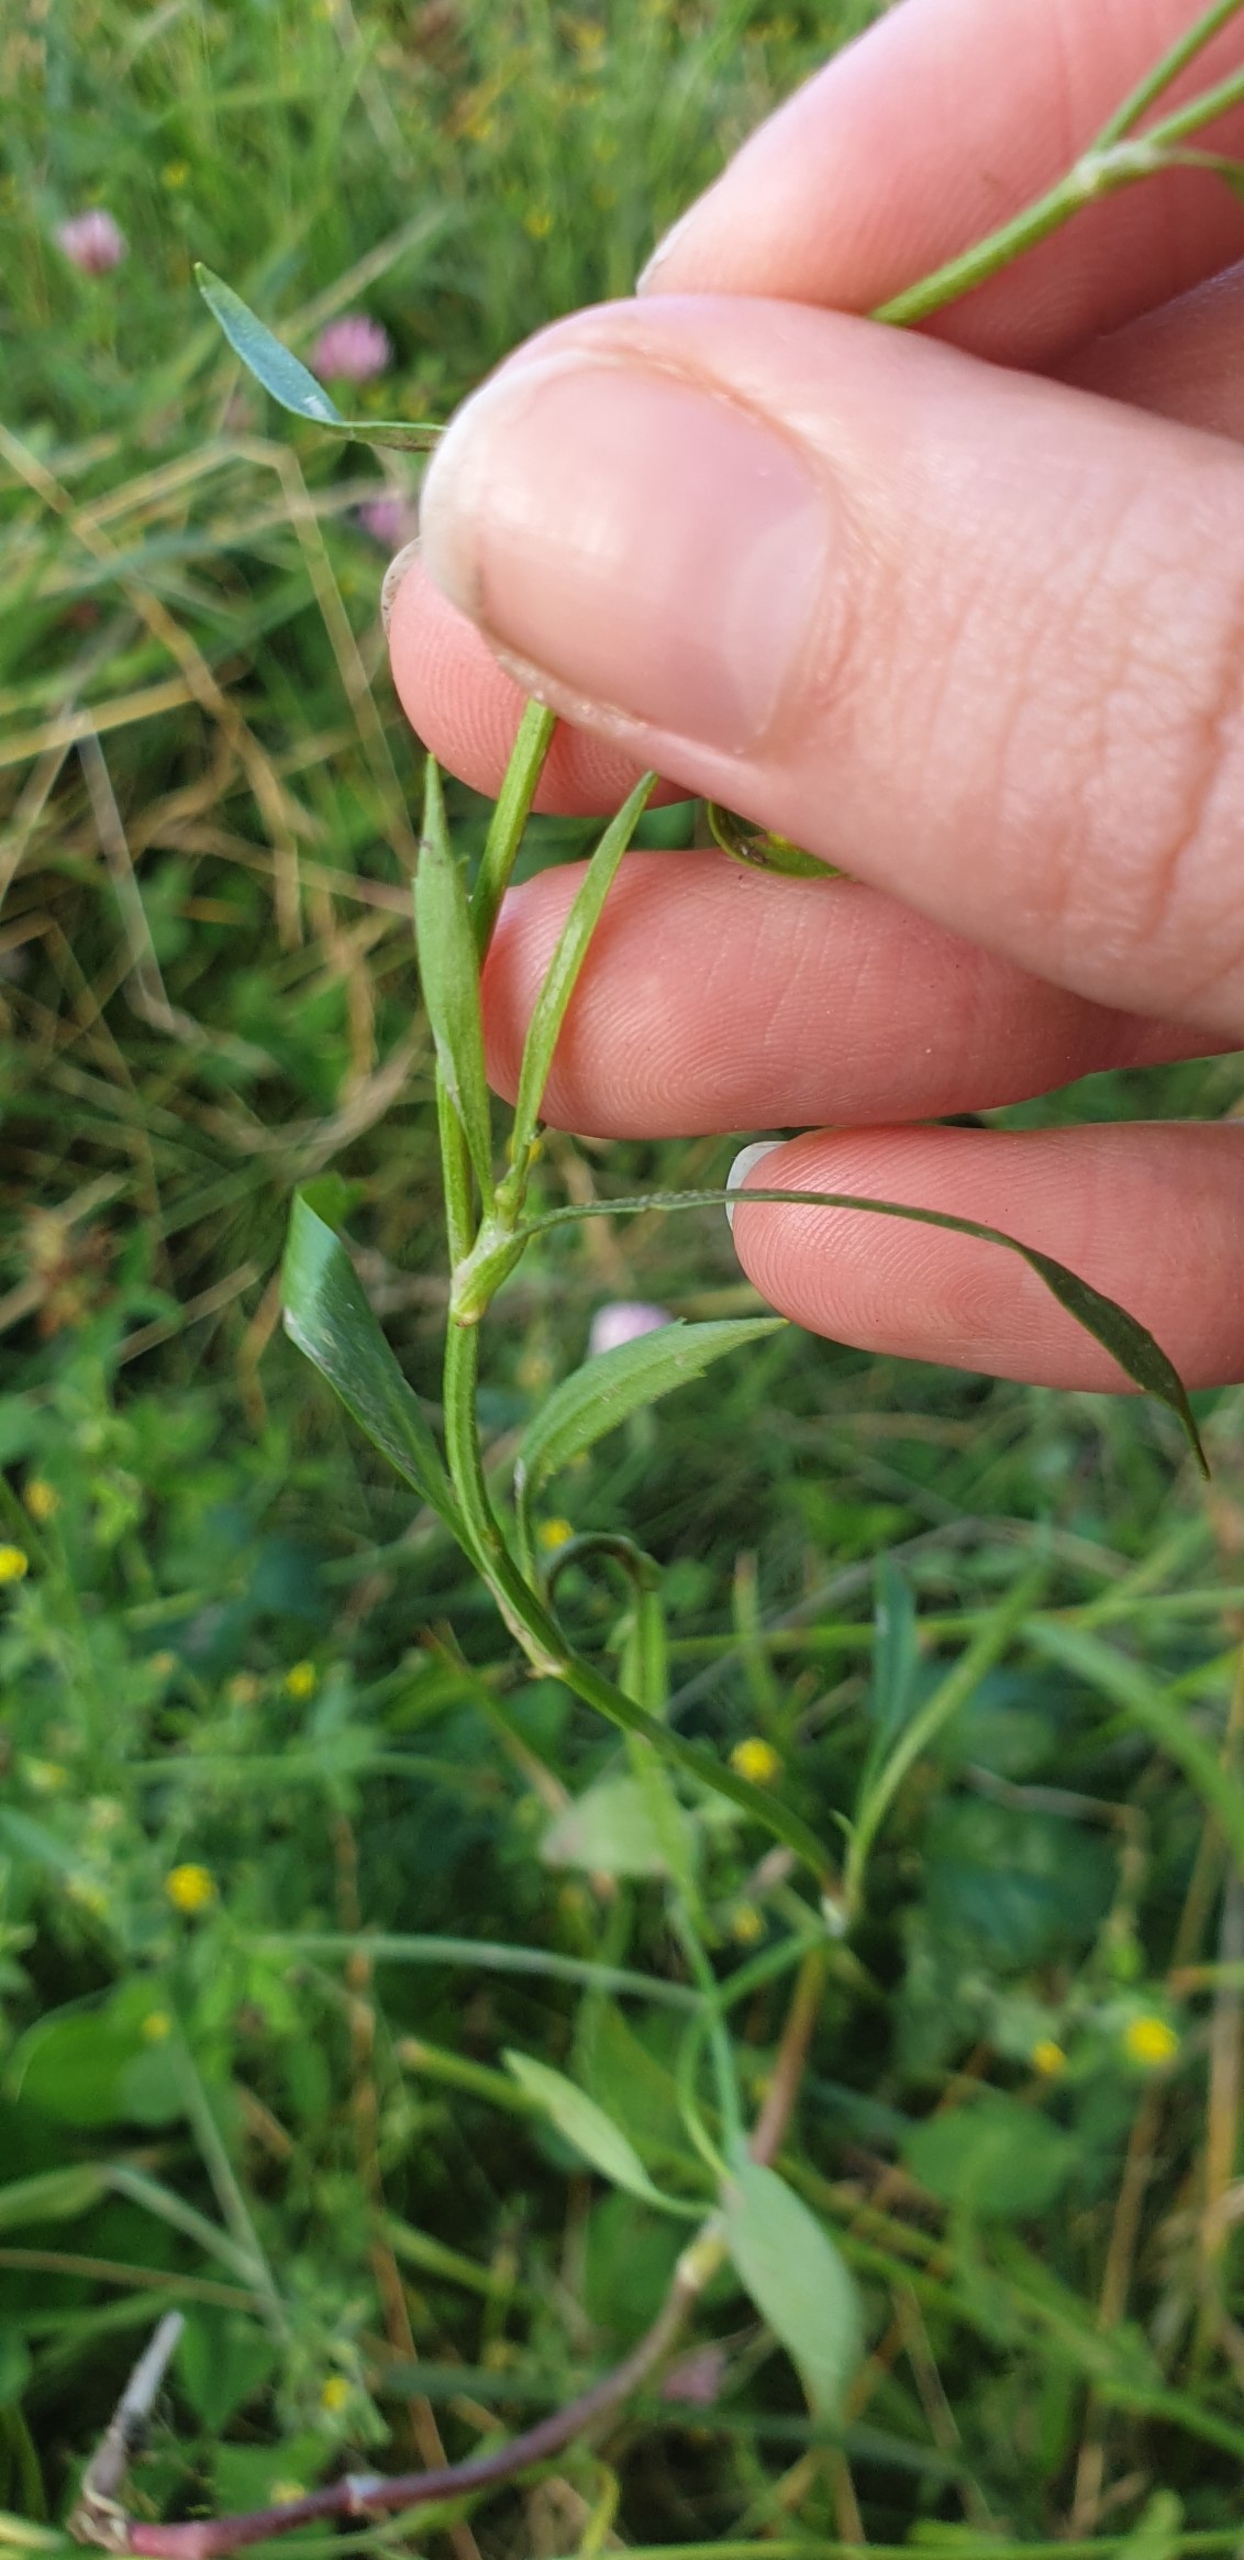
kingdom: Plantae
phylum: Tracheophyta
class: Magnoliopsida
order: Ranunculales
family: Ranunculaceae
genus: Ranunculus
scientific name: Ranunculus flammula
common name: Kær-ranunkel
